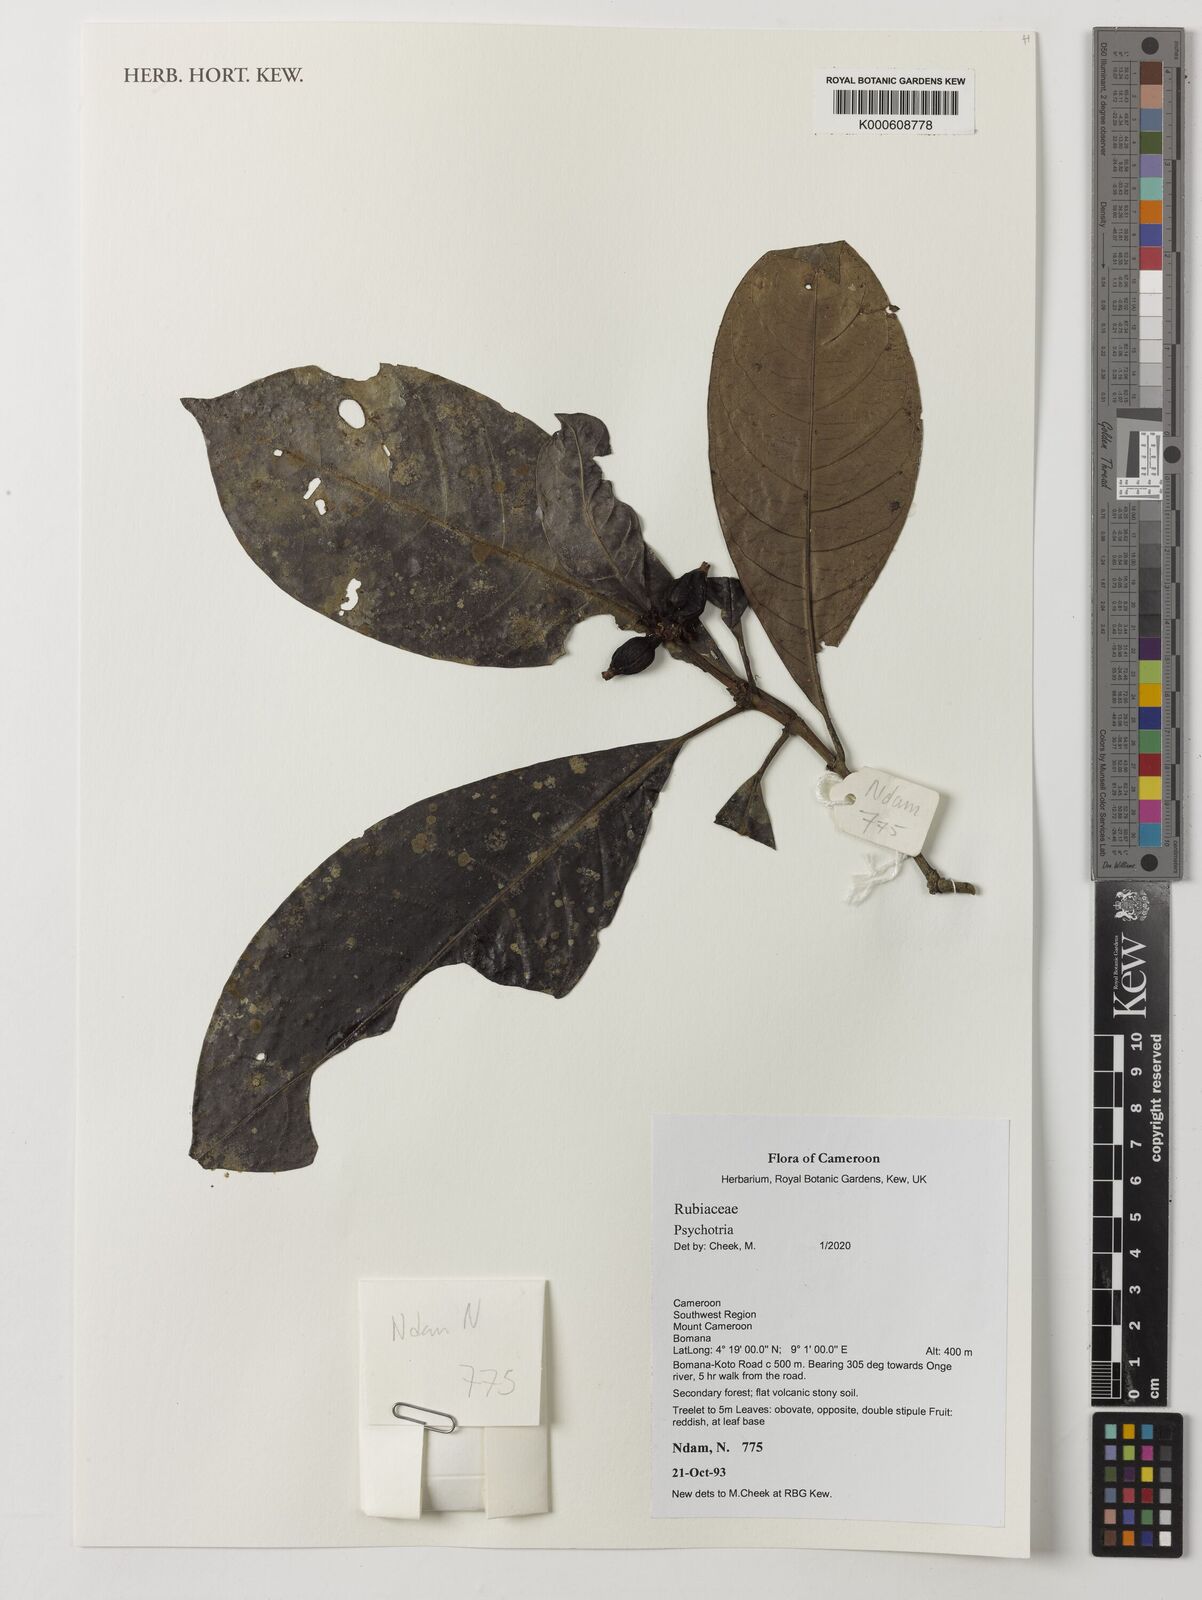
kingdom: Plantae
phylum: Tracheophyta
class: Magnoliopsida
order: Gentianales
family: Rubiaceae
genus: Psychotria
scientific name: Psychotria
